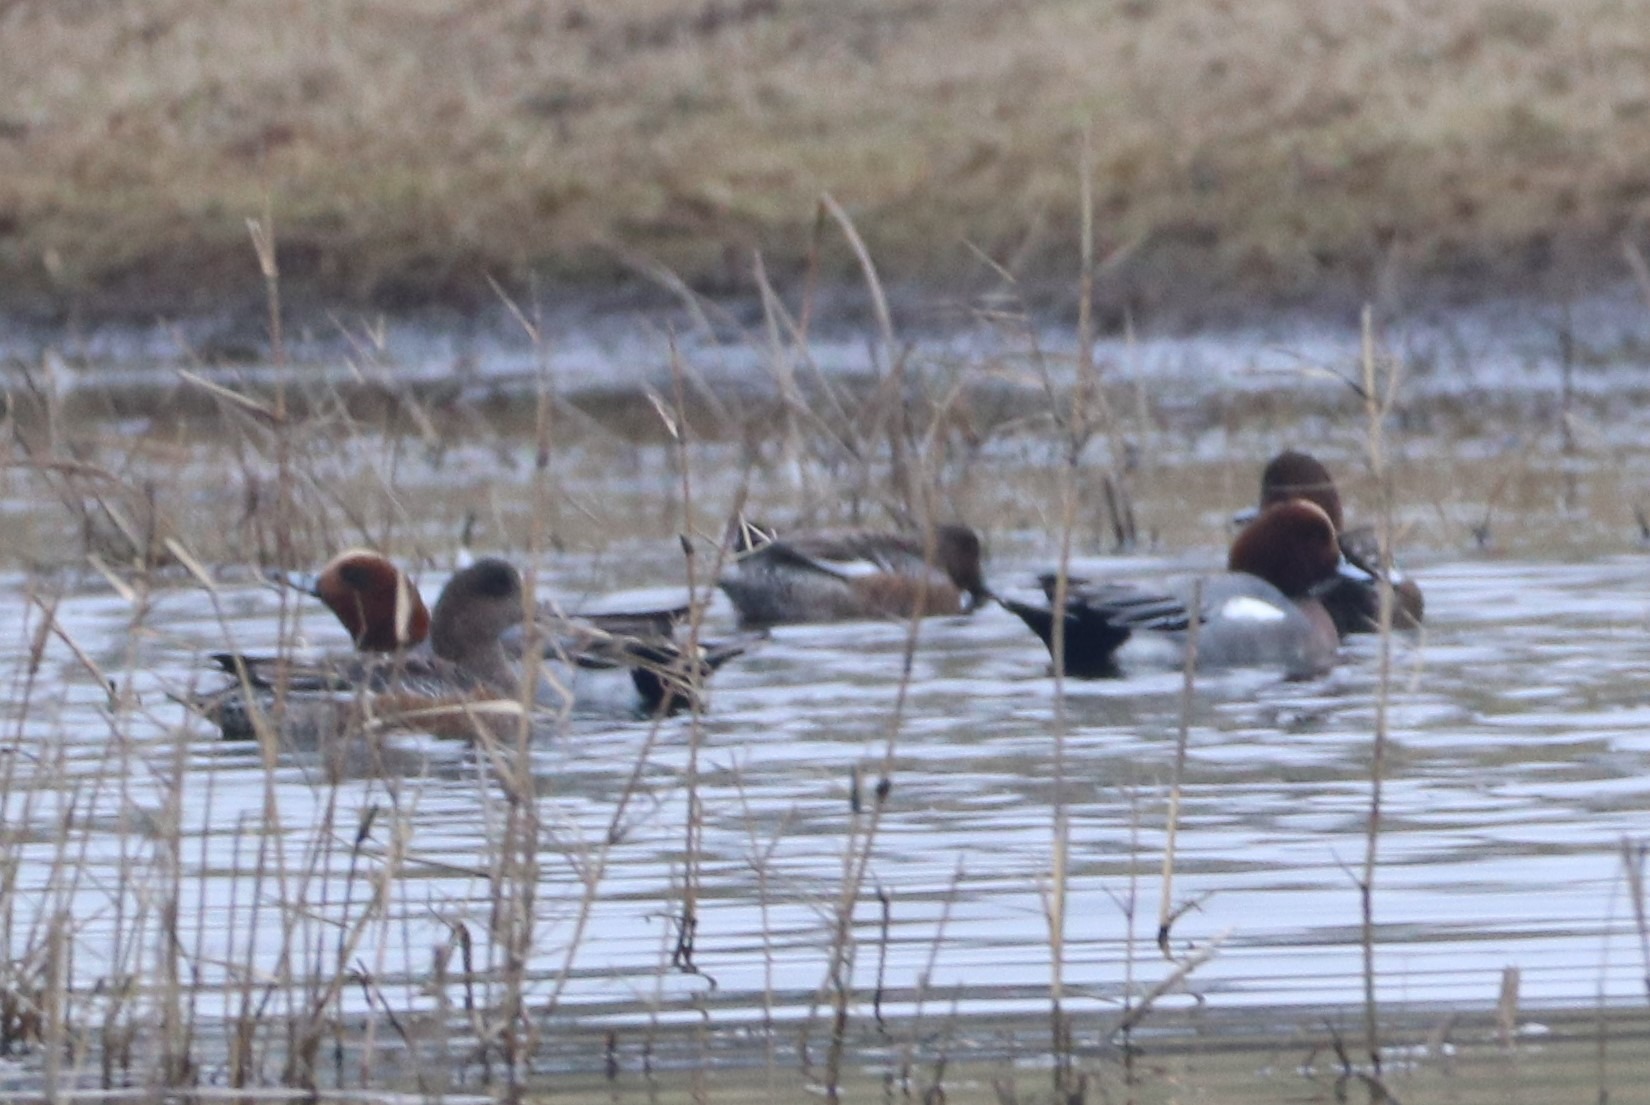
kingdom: Animalia
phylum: Chordata
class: Aves
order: Anseriformes
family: Anatidae
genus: Mareca
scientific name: Mareca penelope
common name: Pibeand
